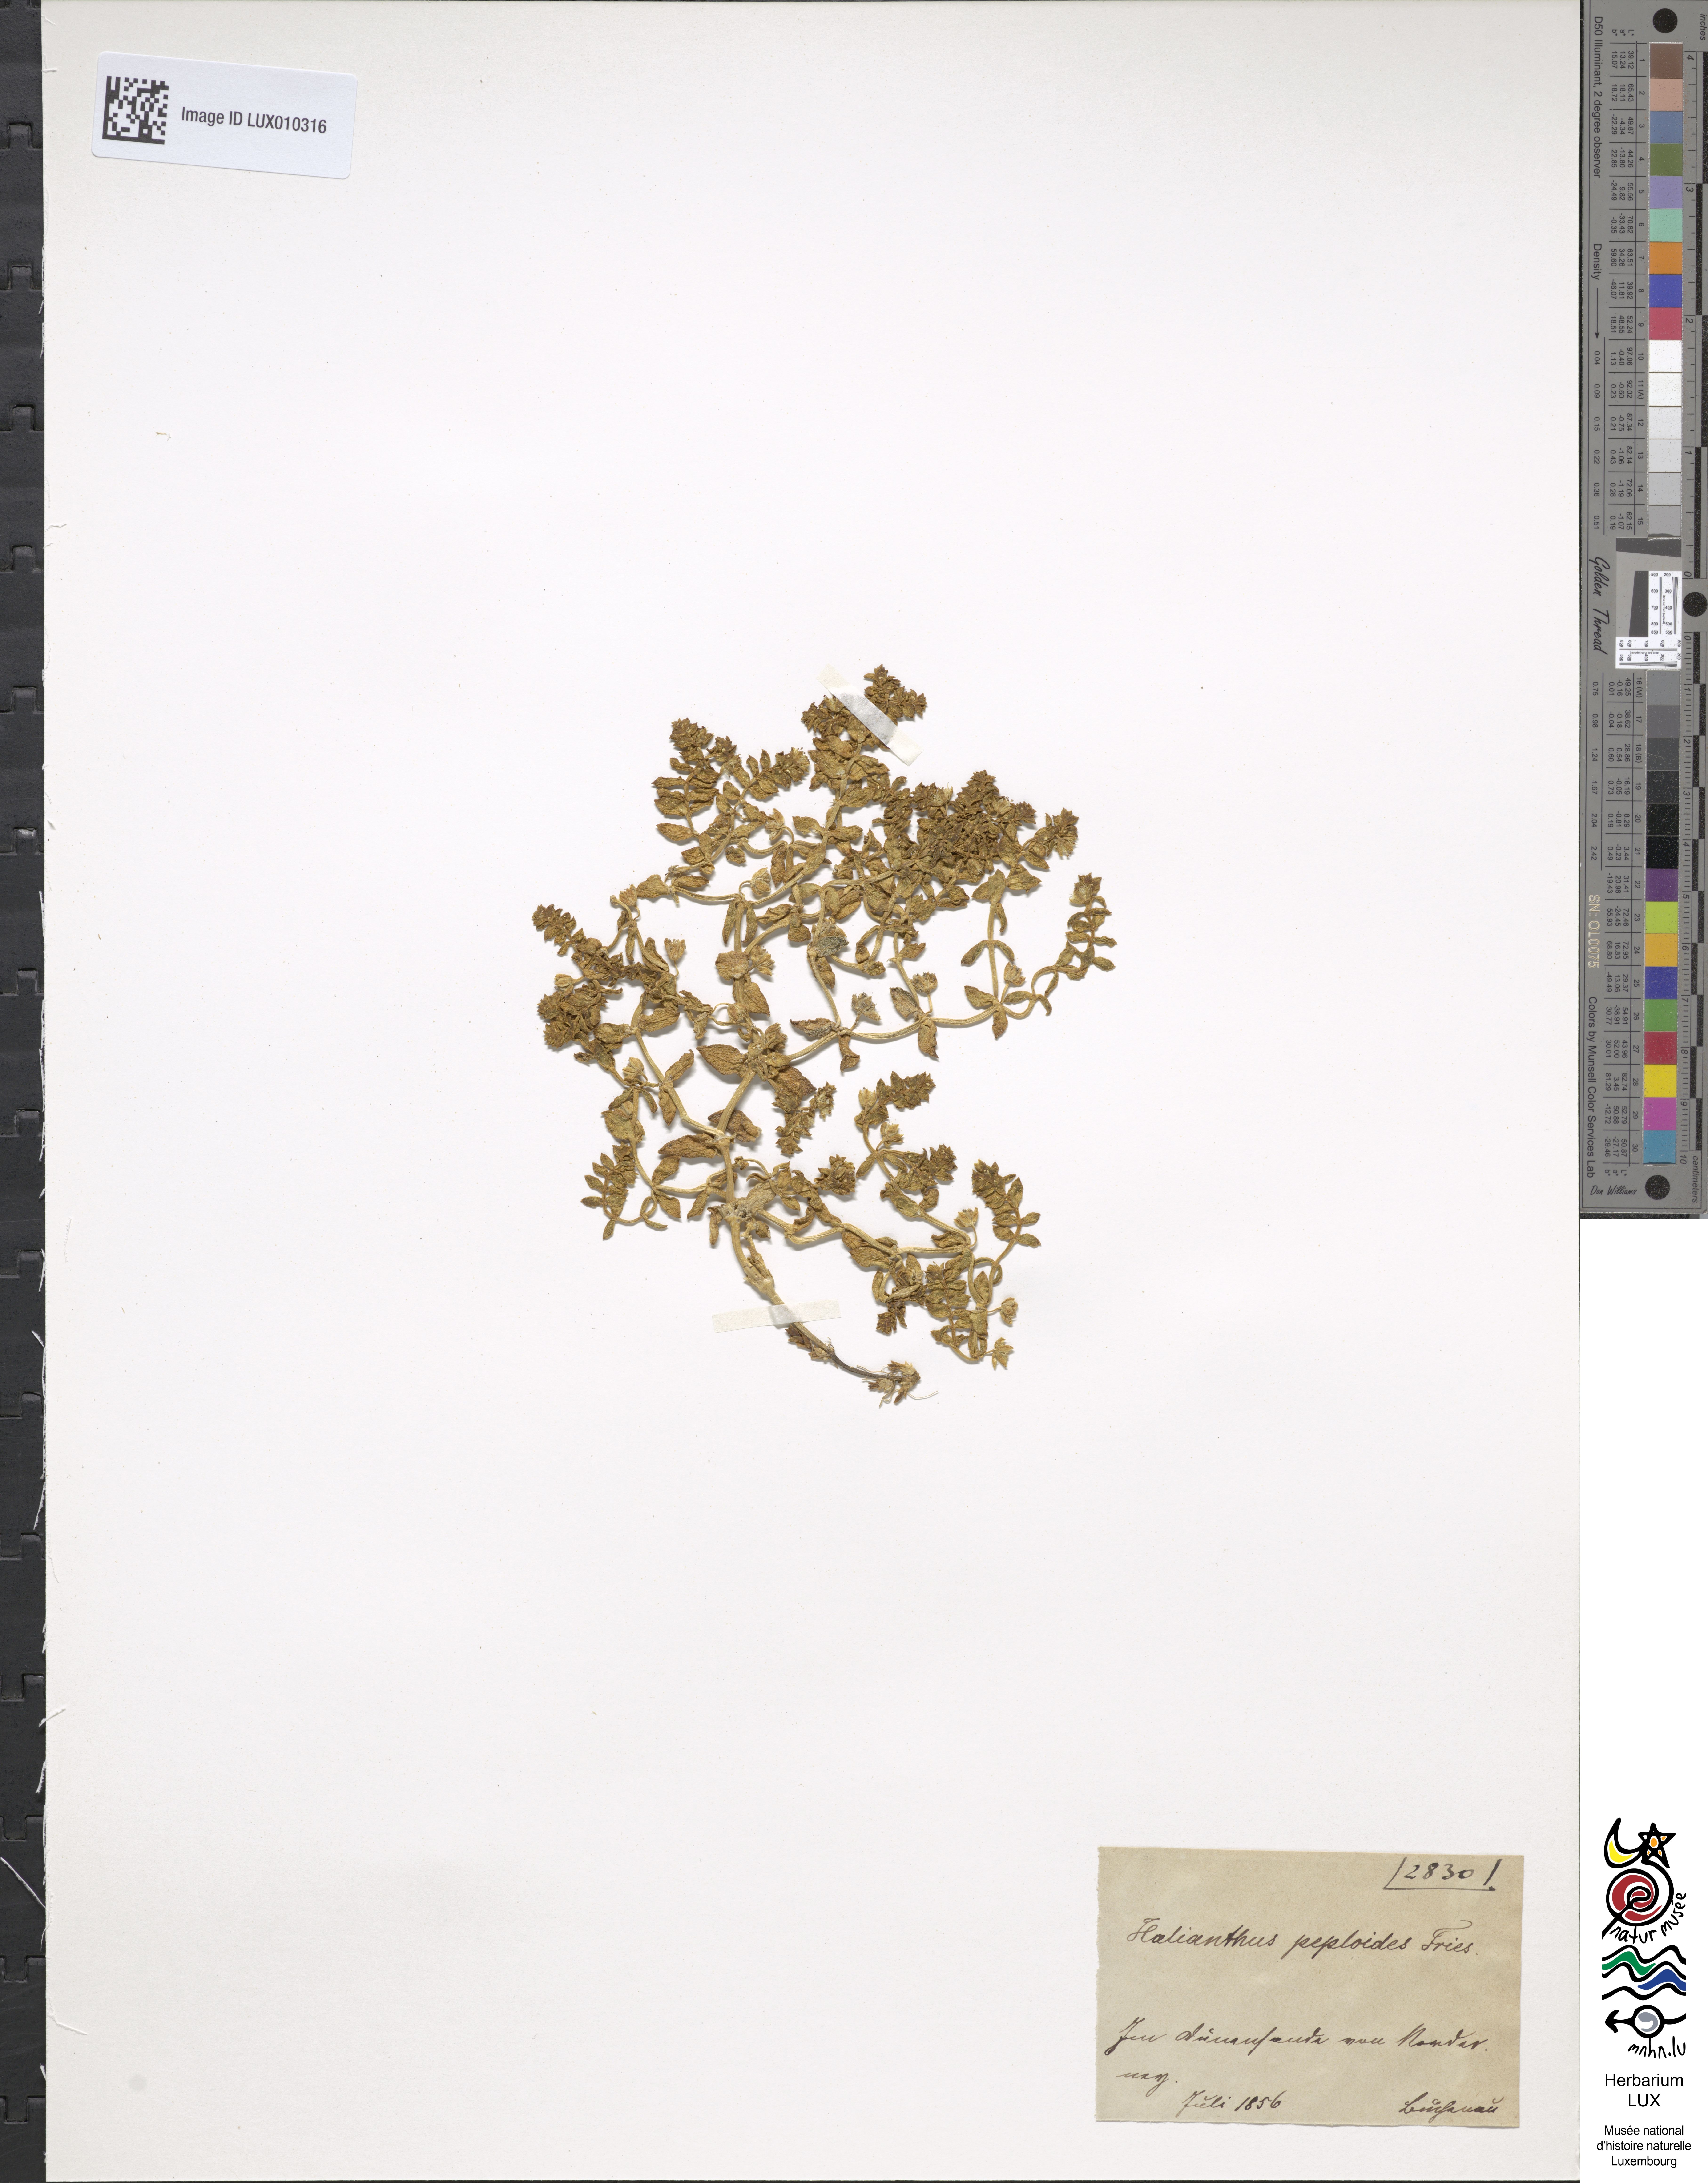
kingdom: Plantae
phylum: Tracheophyta
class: Magnoliopsida
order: Caryophyllales
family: Caryophyllaceae
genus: Honckenya
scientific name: Honckenya peploides
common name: Sea sandwort
